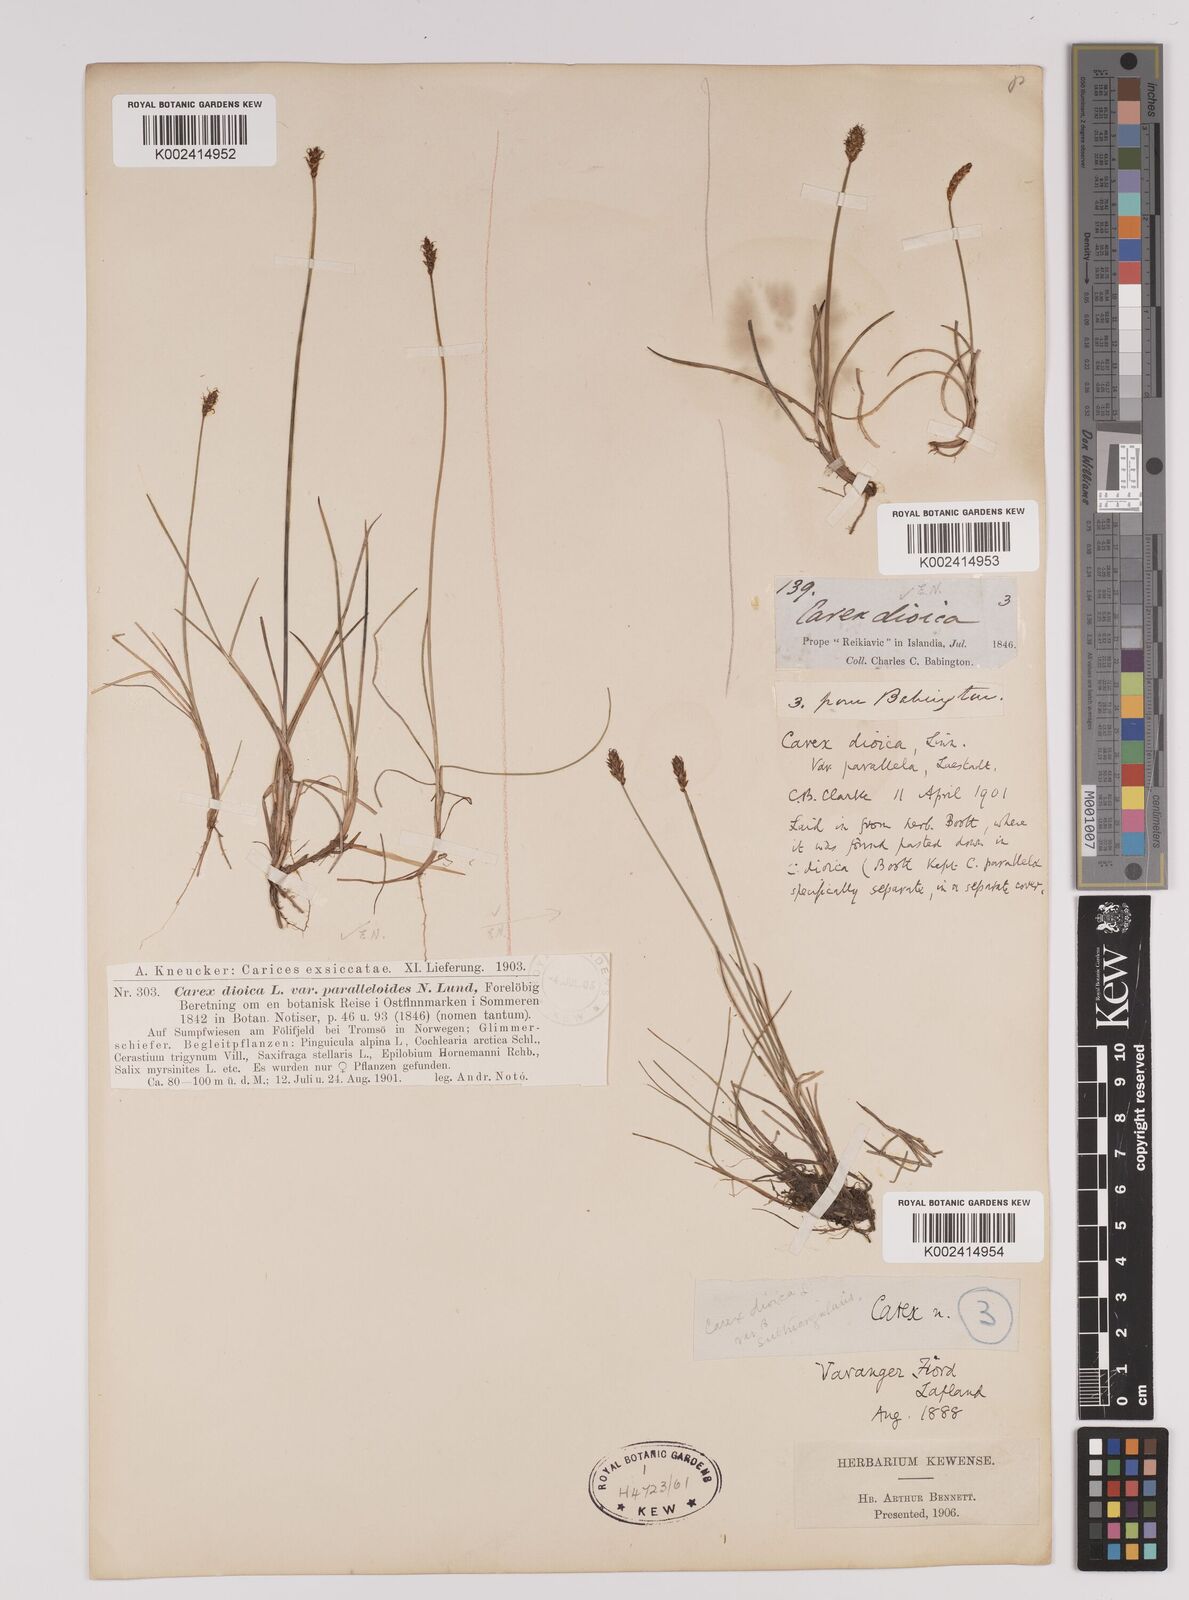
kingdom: Plantae
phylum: Tracheophyta
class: Liliopsida
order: Poales
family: Cyperaceae
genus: Carex
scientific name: Carex dioica
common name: Dioecious sedge
